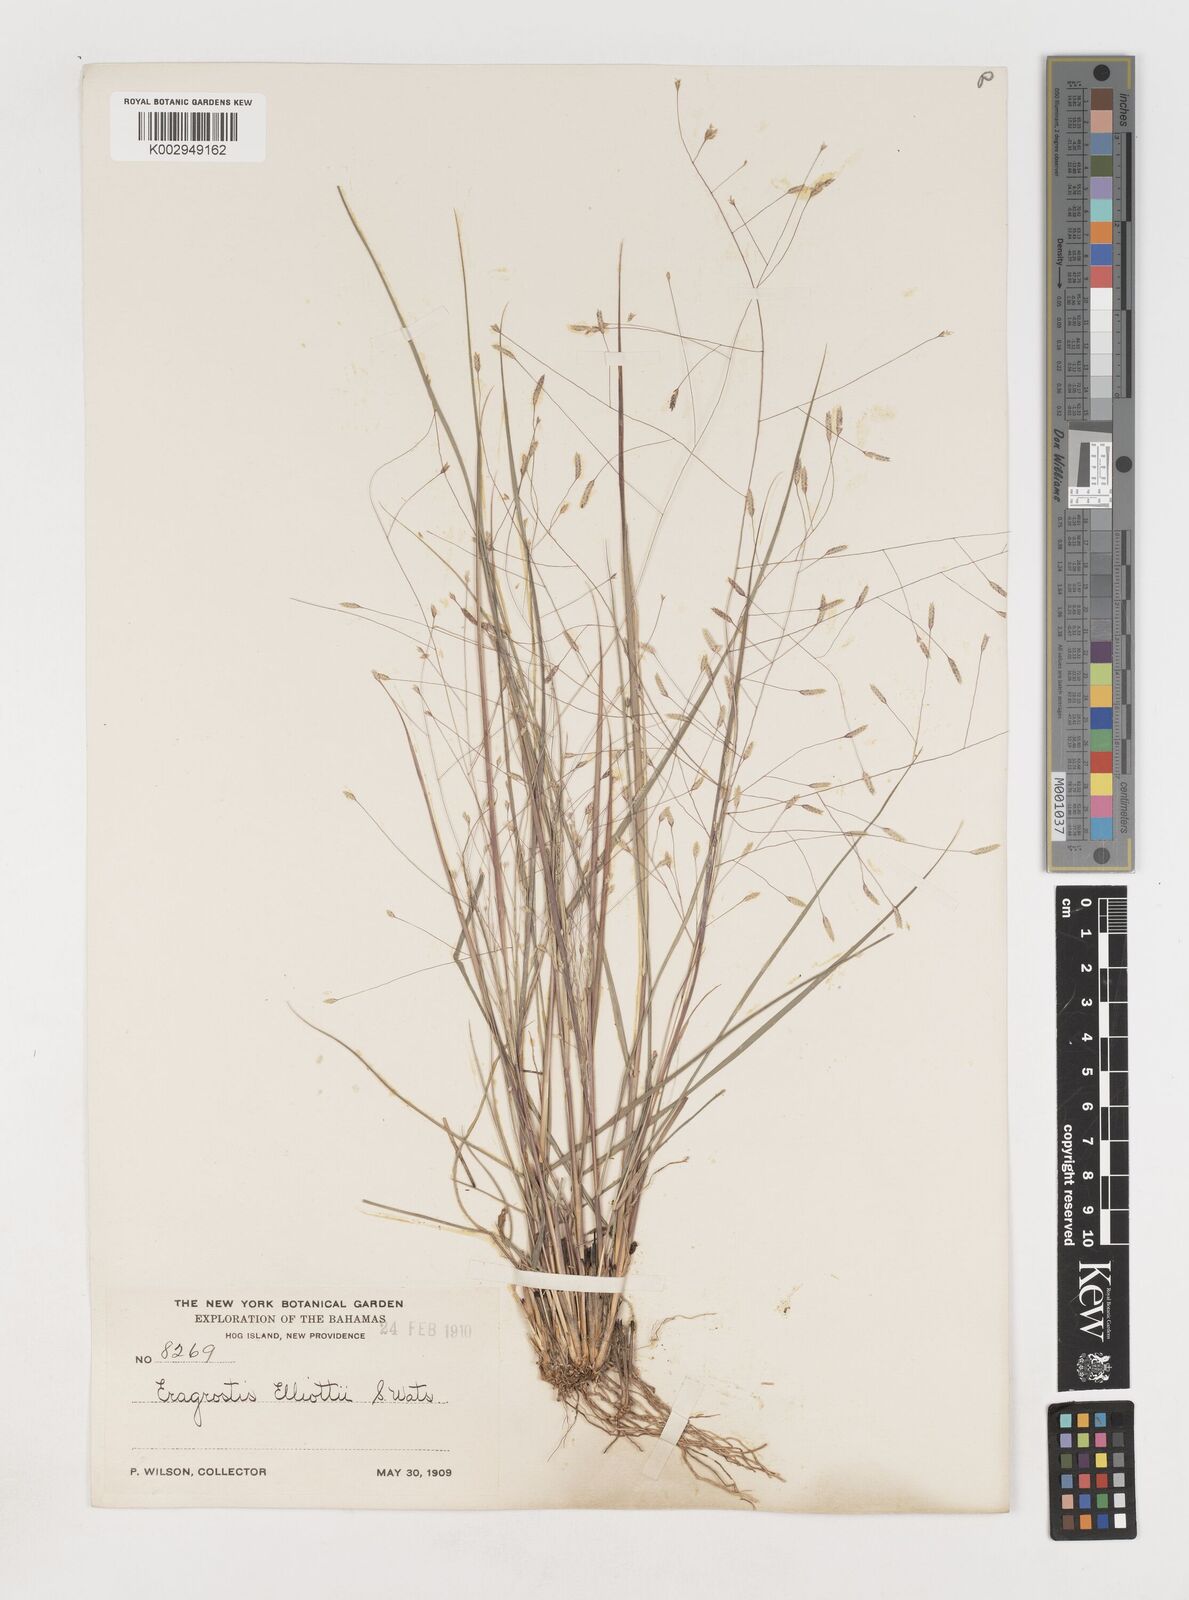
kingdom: Plantae
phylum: Tracheophyta
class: Liliopsida
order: Poales
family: Poaceae
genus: Eragrostis
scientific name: Eragrostis elliottii
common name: Elliott's love grass
